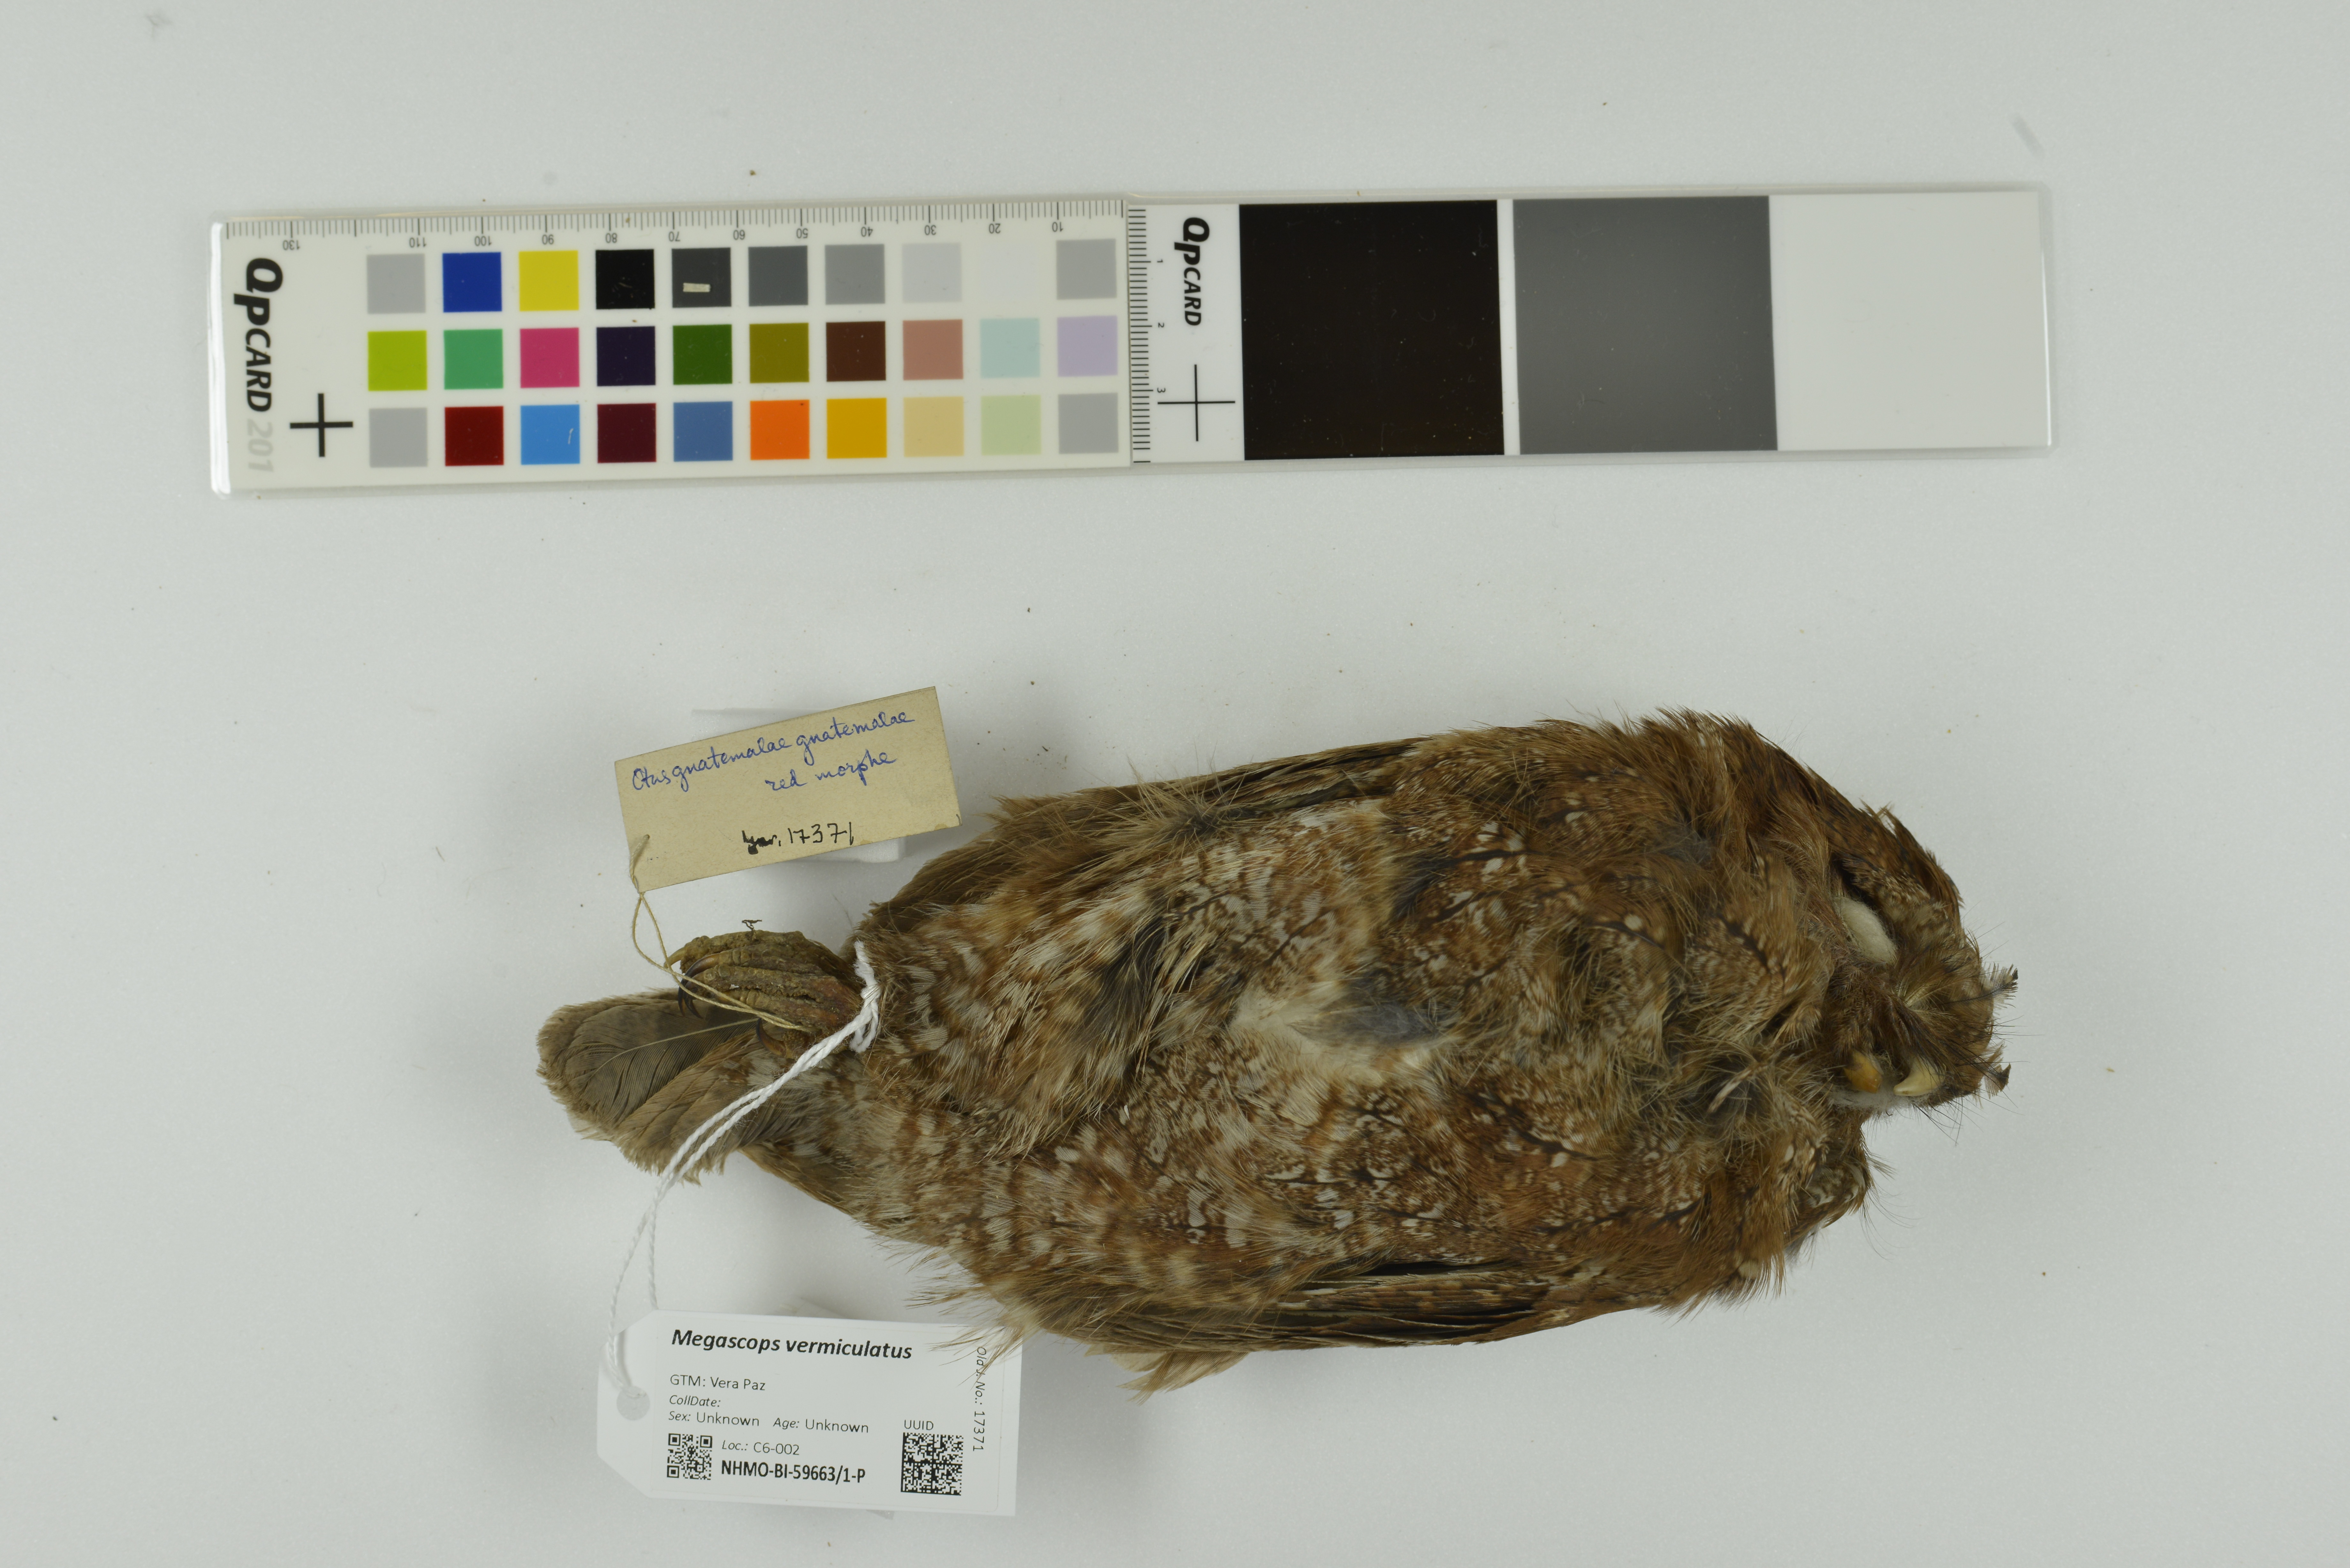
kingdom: Animalia
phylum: Chordata
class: Aves
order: Strigiformes
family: Strigidae
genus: Megascops
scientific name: Megascops vermiculatus
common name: Vermiculated screech owl
